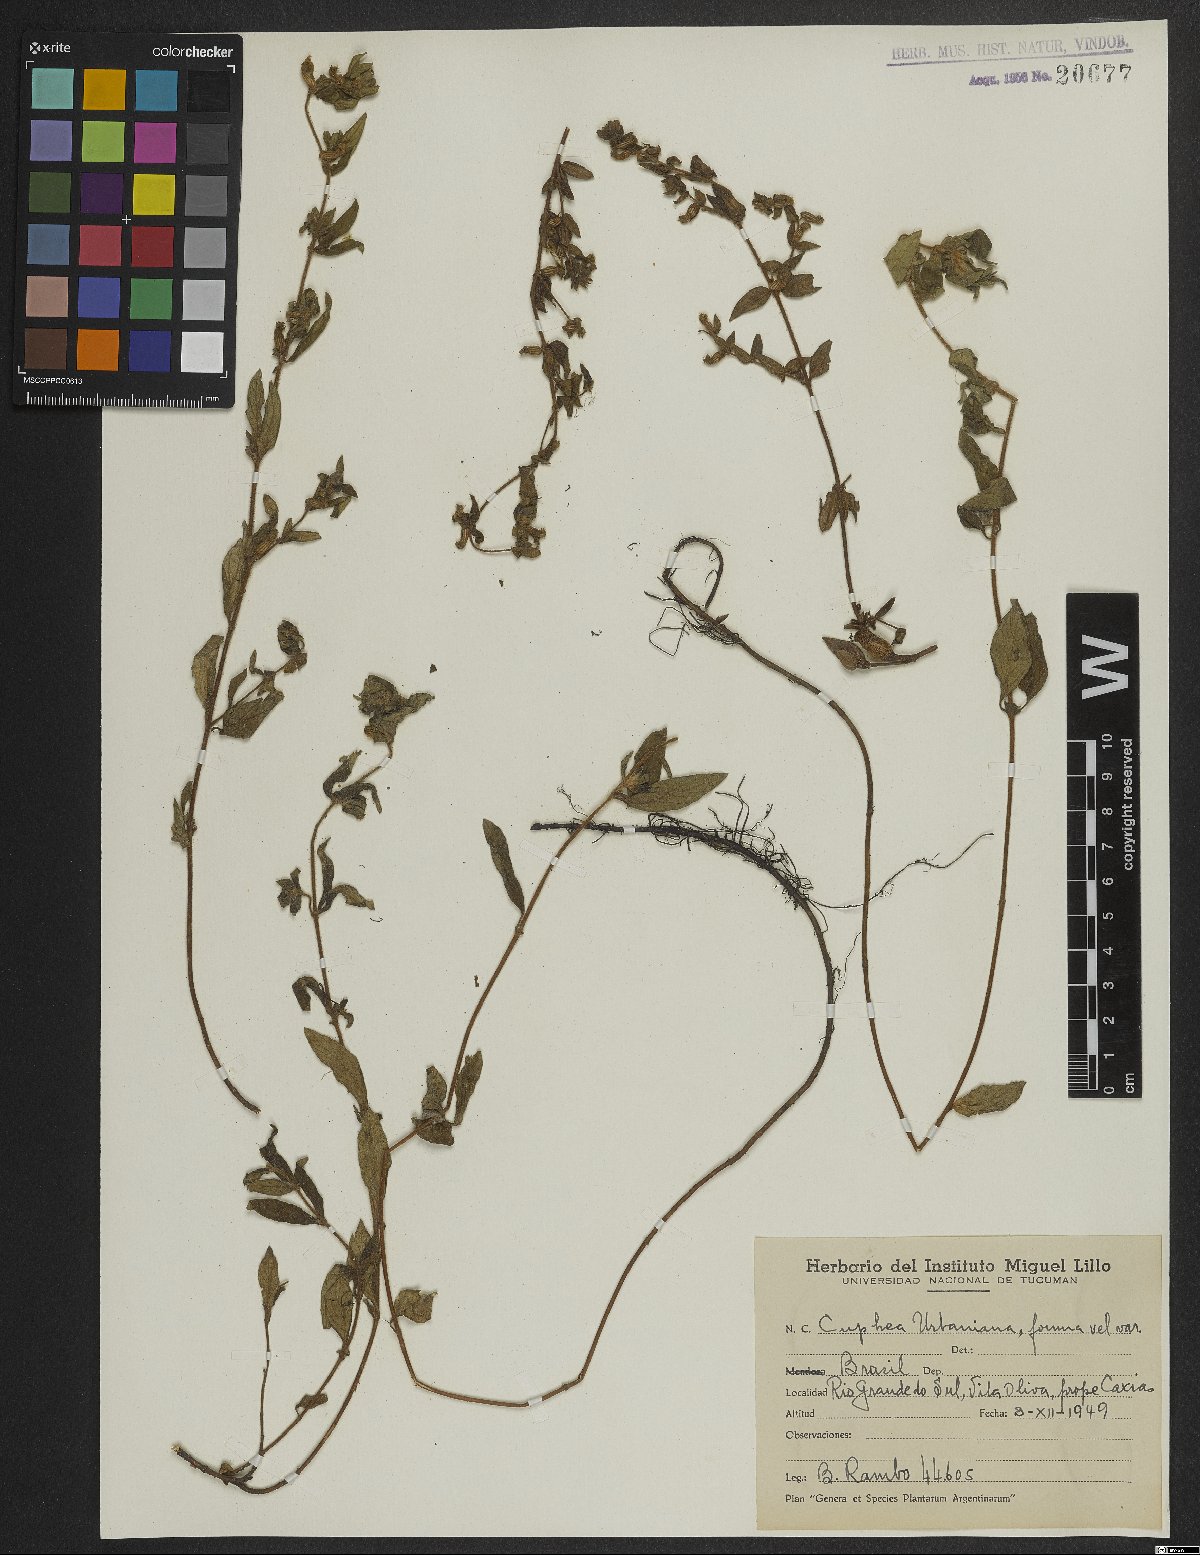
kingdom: Plantae
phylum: Tracheophyta
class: Magnoliopsida
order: Myrtales
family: Lythraceae
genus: Cuphea
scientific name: Cuphea urbaniana
